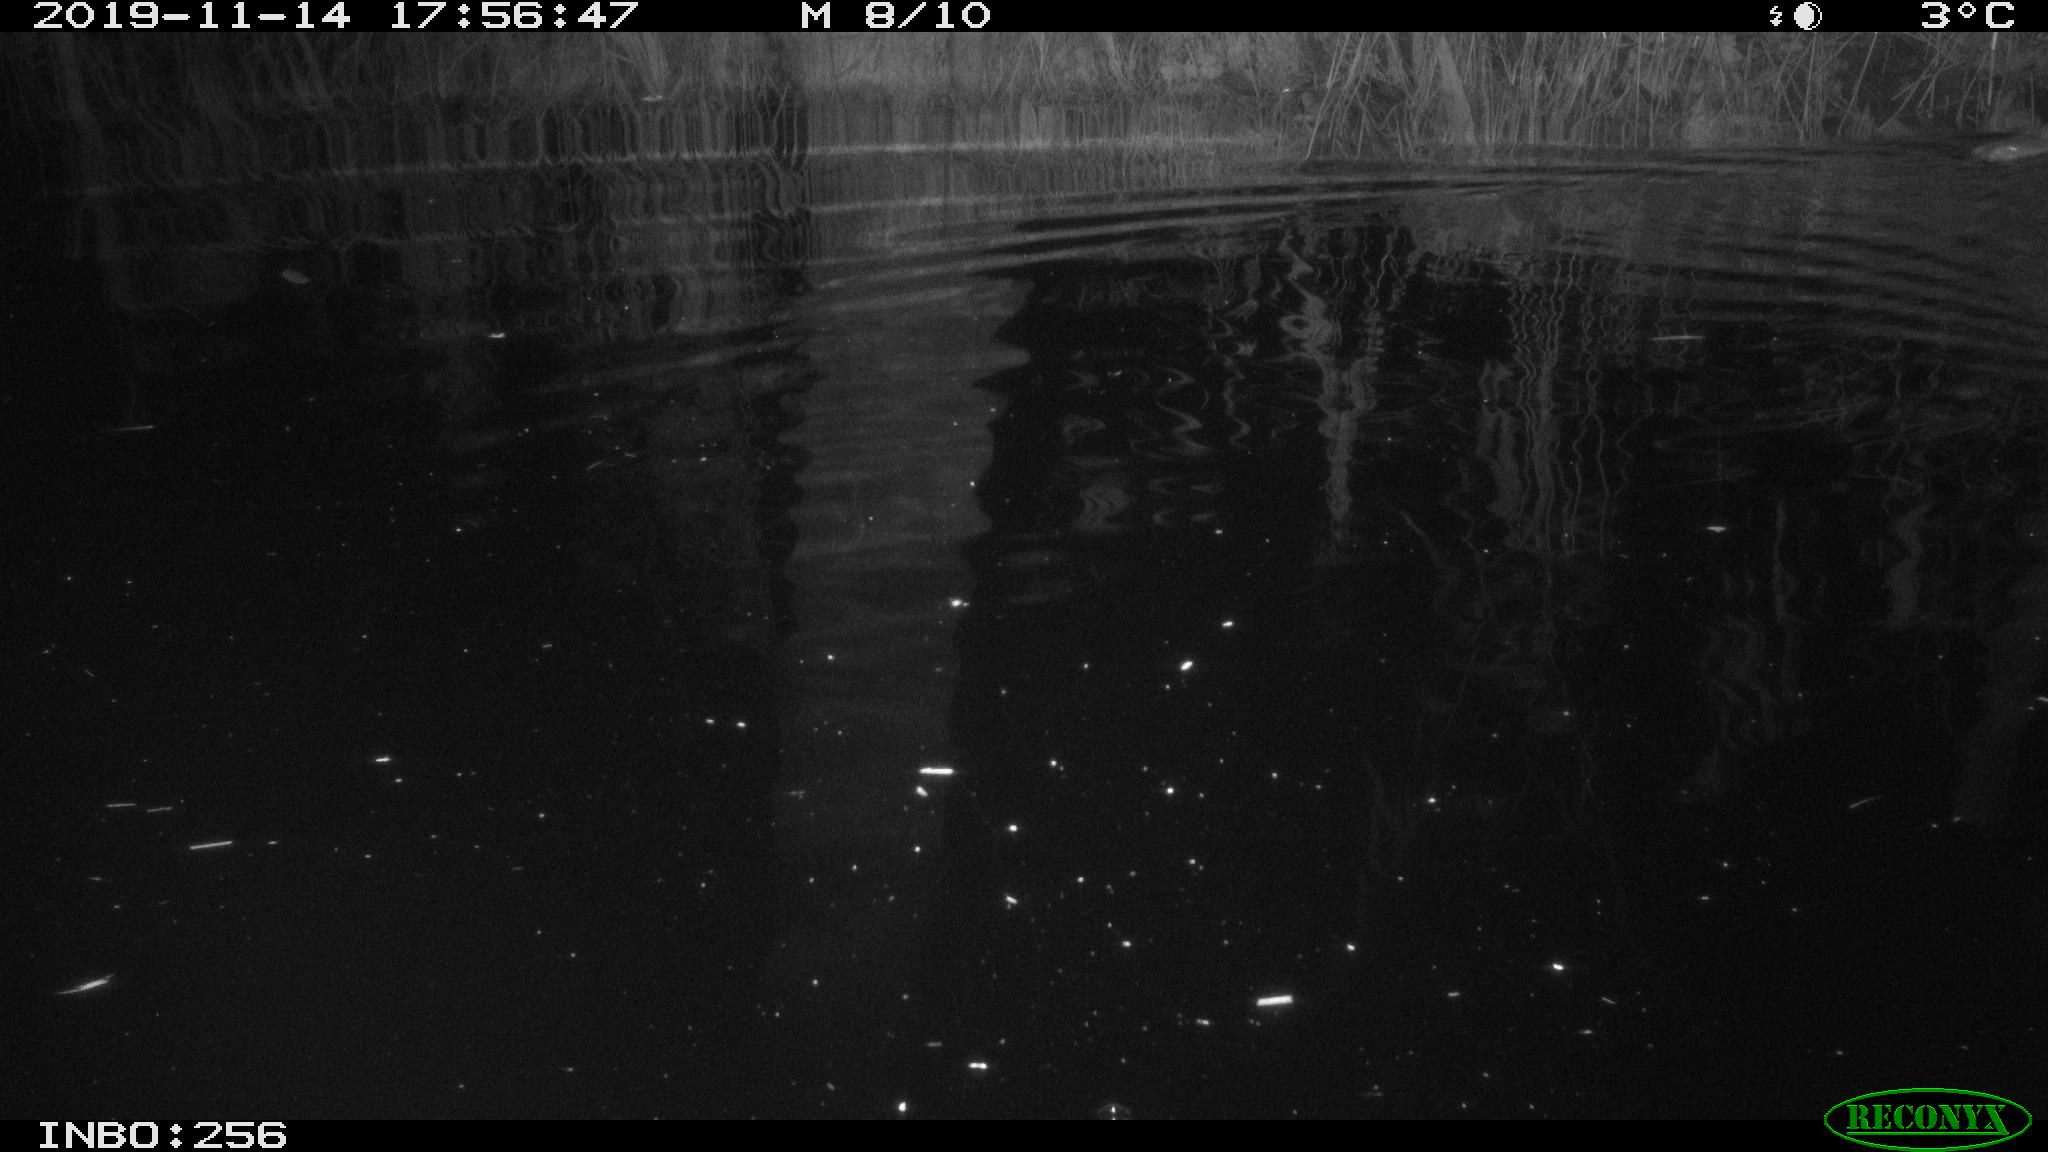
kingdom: Animalia
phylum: Chordata
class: Mammalia
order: Rodentia
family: Muridae
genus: Rattus
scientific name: Rattus norvegicus
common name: Brown rat
